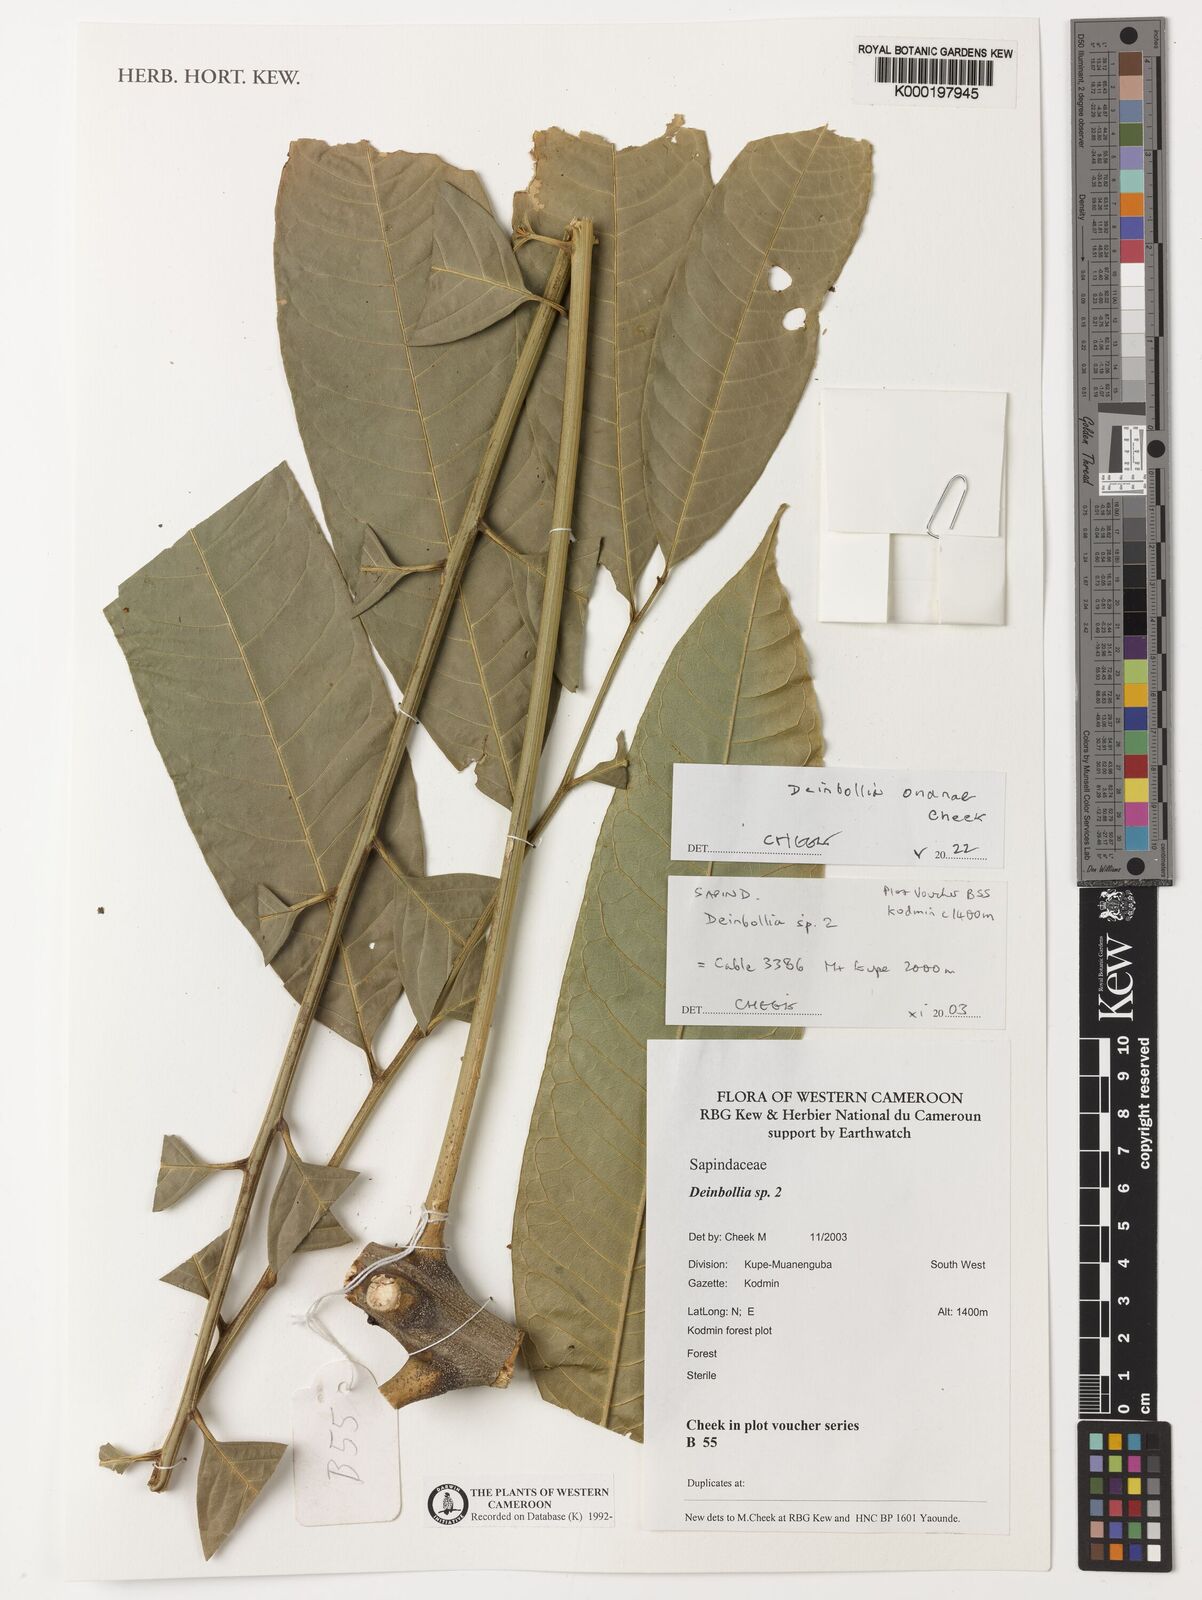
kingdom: Plantae
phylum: Tracheophyta
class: Magnoliopsida
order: Sapindales
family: Sapindaceae
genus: Deinbollia
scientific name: Deinbollia
